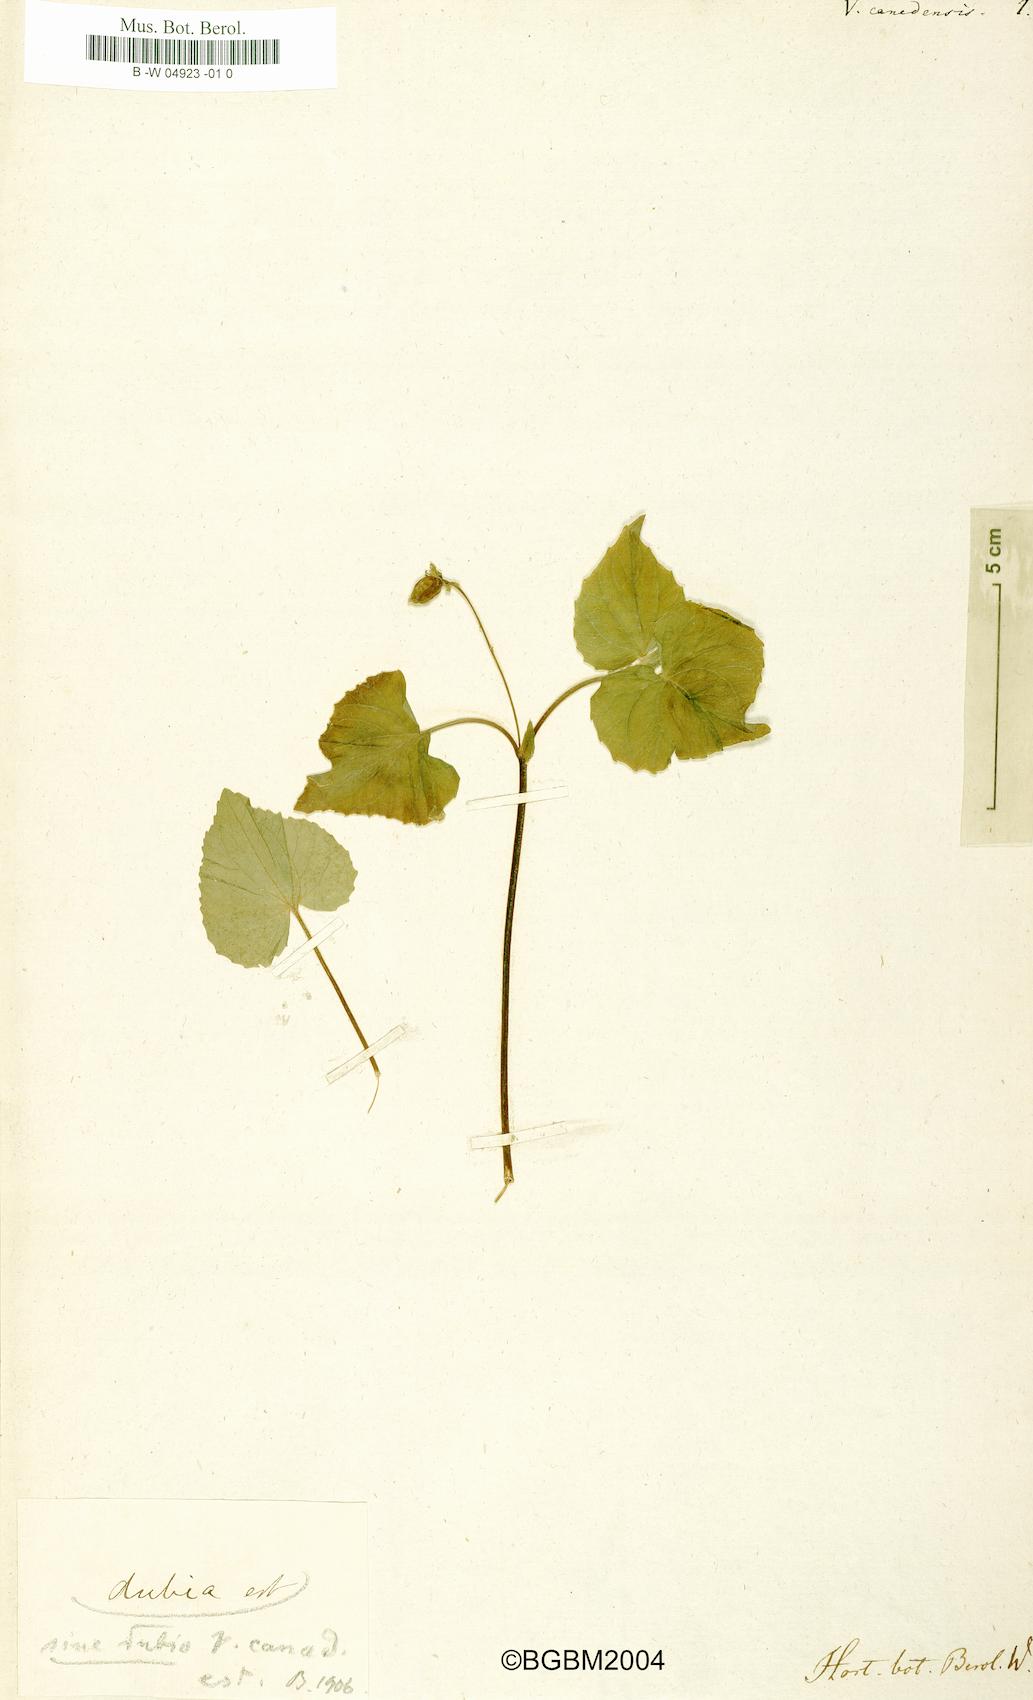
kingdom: Plantae
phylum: Tracheophyta
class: Magnoliopsida
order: Malpighiales
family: Violaceae
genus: Viola
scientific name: Viola canadensis
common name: Canada violet
